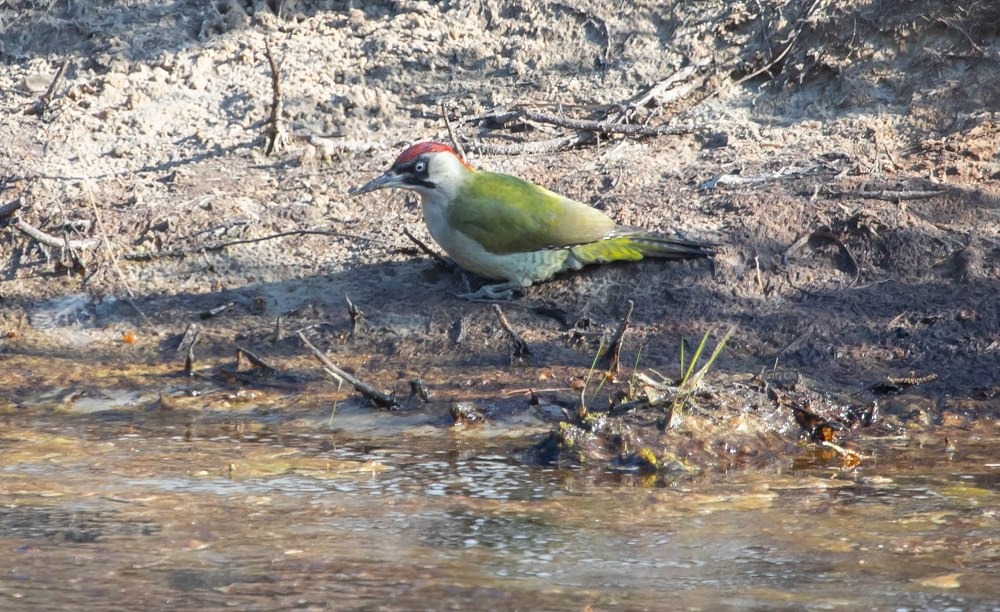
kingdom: Animalia
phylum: Chordata
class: Aves
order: Piciformes
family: Picidae
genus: Picus
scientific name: Picus viridis
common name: Grønspætte
